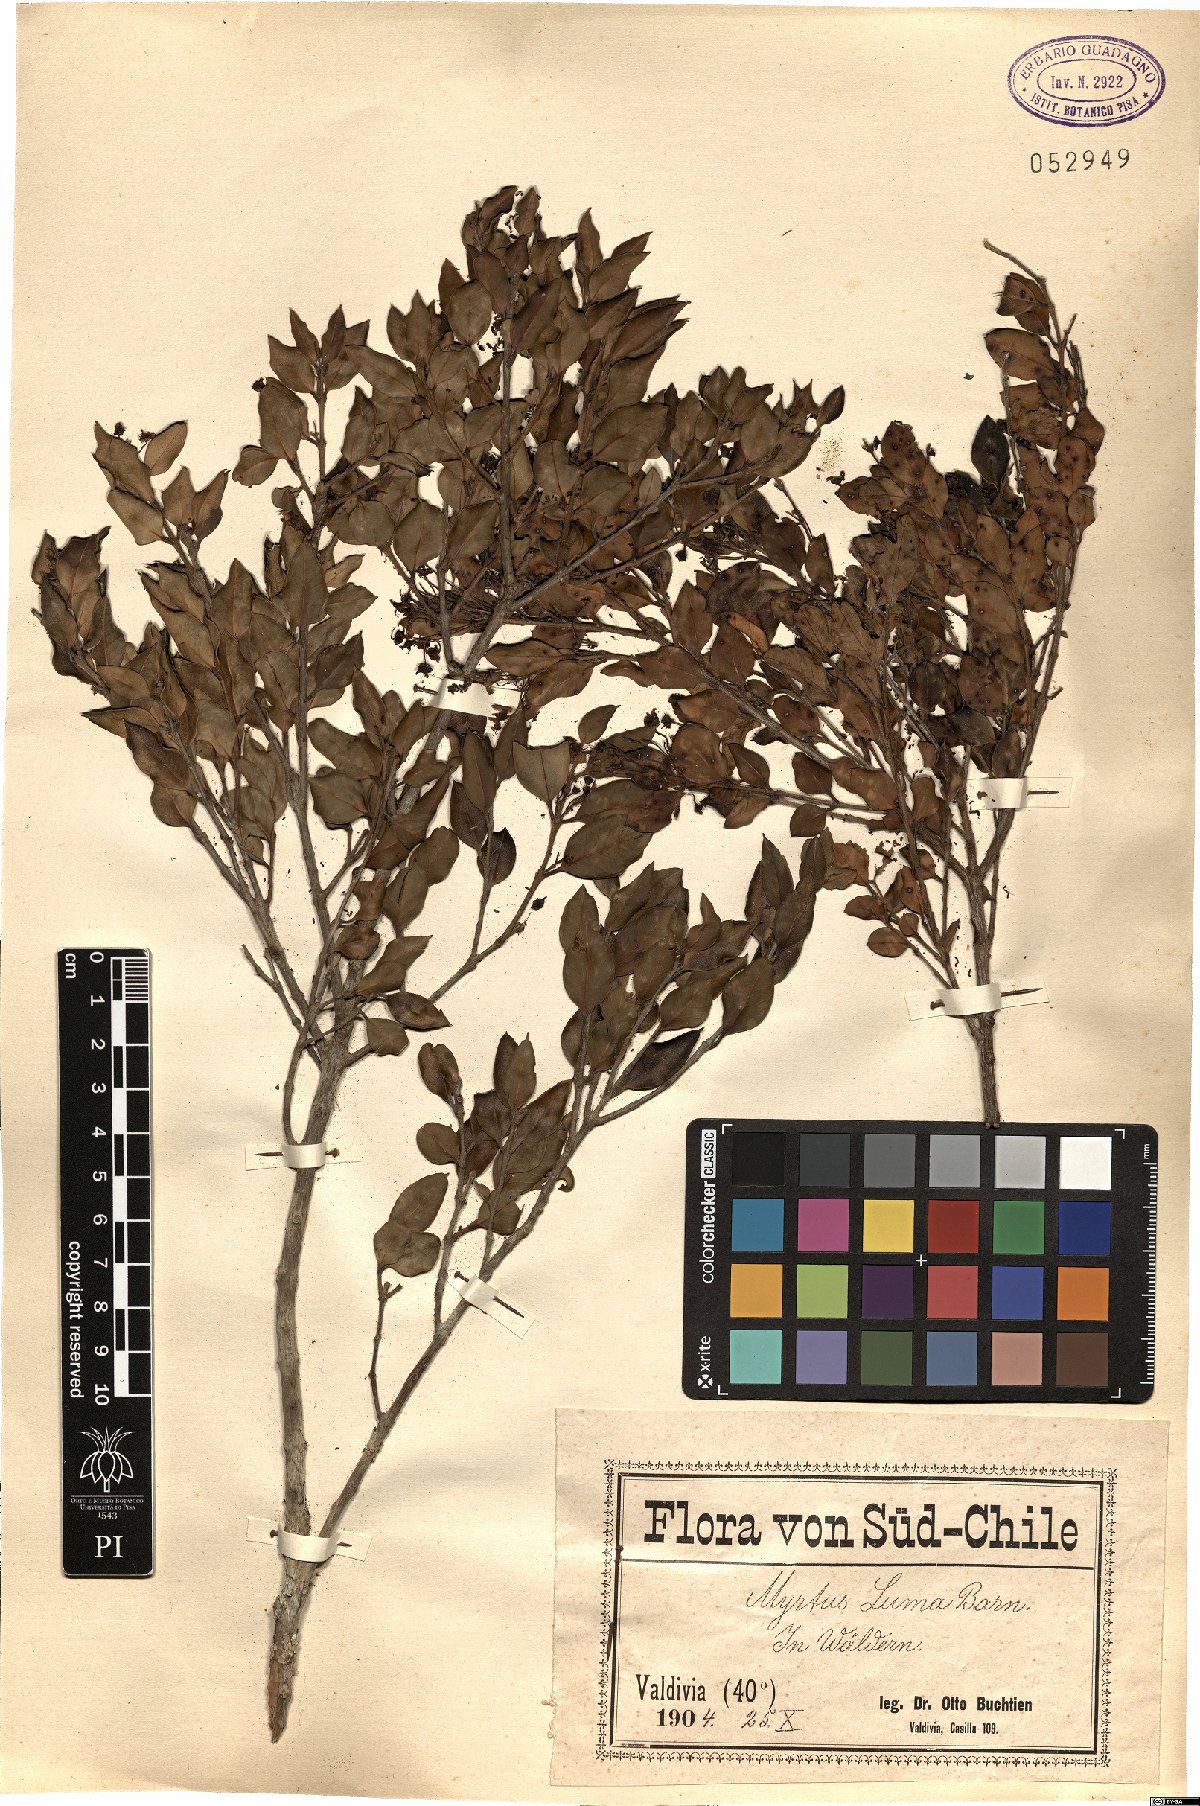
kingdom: Plantae
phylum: Tracheophyta
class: Magnoliopsida
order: Myrtales
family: Myrtaceae
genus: Amomyrtus
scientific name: Amomyrtus luma
